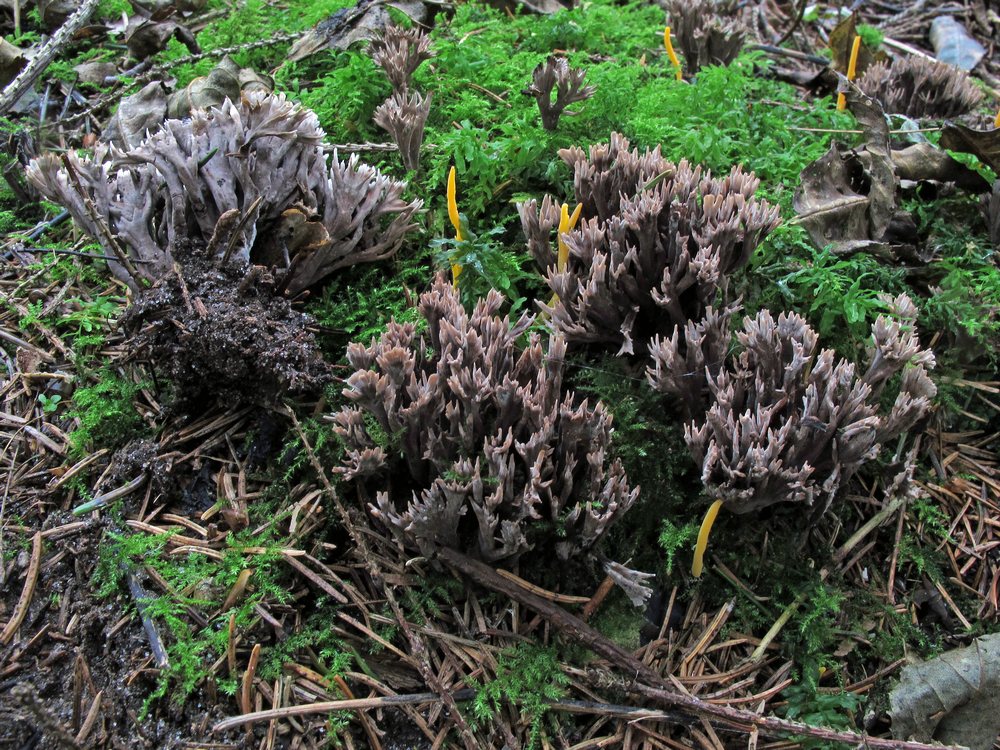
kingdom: Fungi
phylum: Basidiomycota
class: Agaricomycetes
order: Thelephorales
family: Thelephoraceae
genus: Thelephora
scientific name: Thelephora palmata
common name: grenet frynsesvamp
